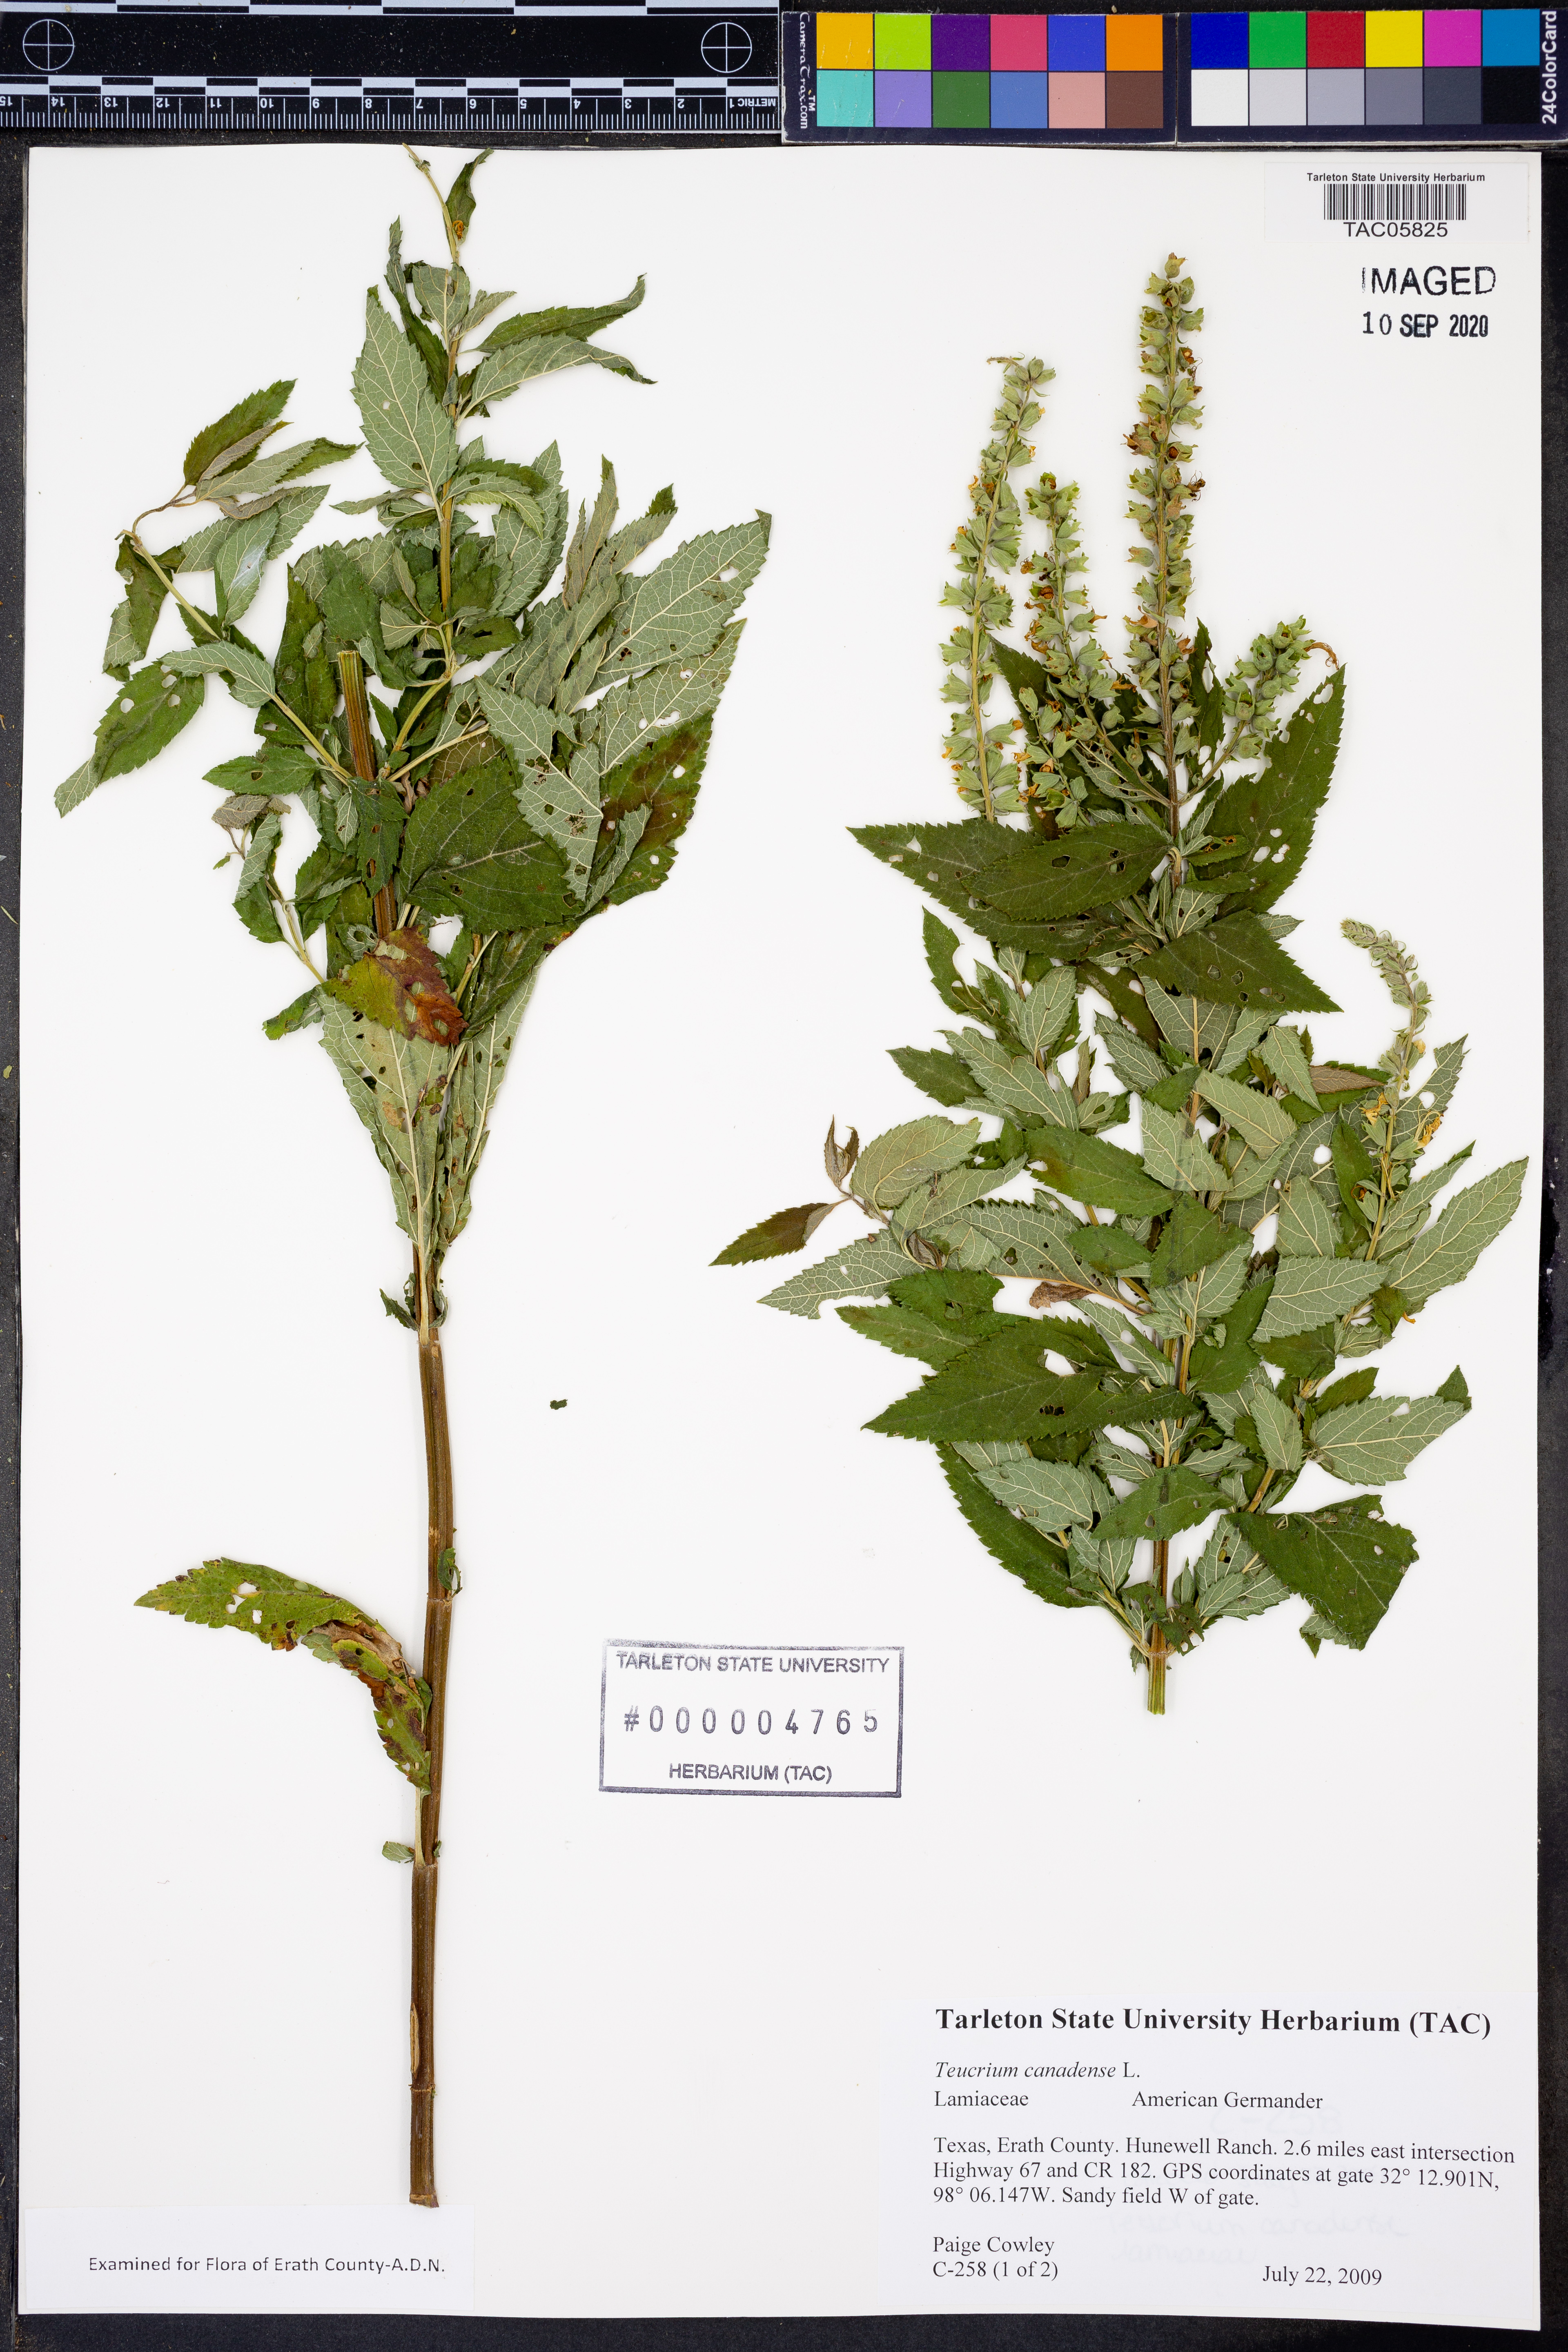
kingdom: Plantae
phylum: Tracheophyta
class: Magnoliopsida
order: Lamiales
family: Lamiaceae
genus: Teucrium
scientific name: Teucrium canadense
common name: American germander
